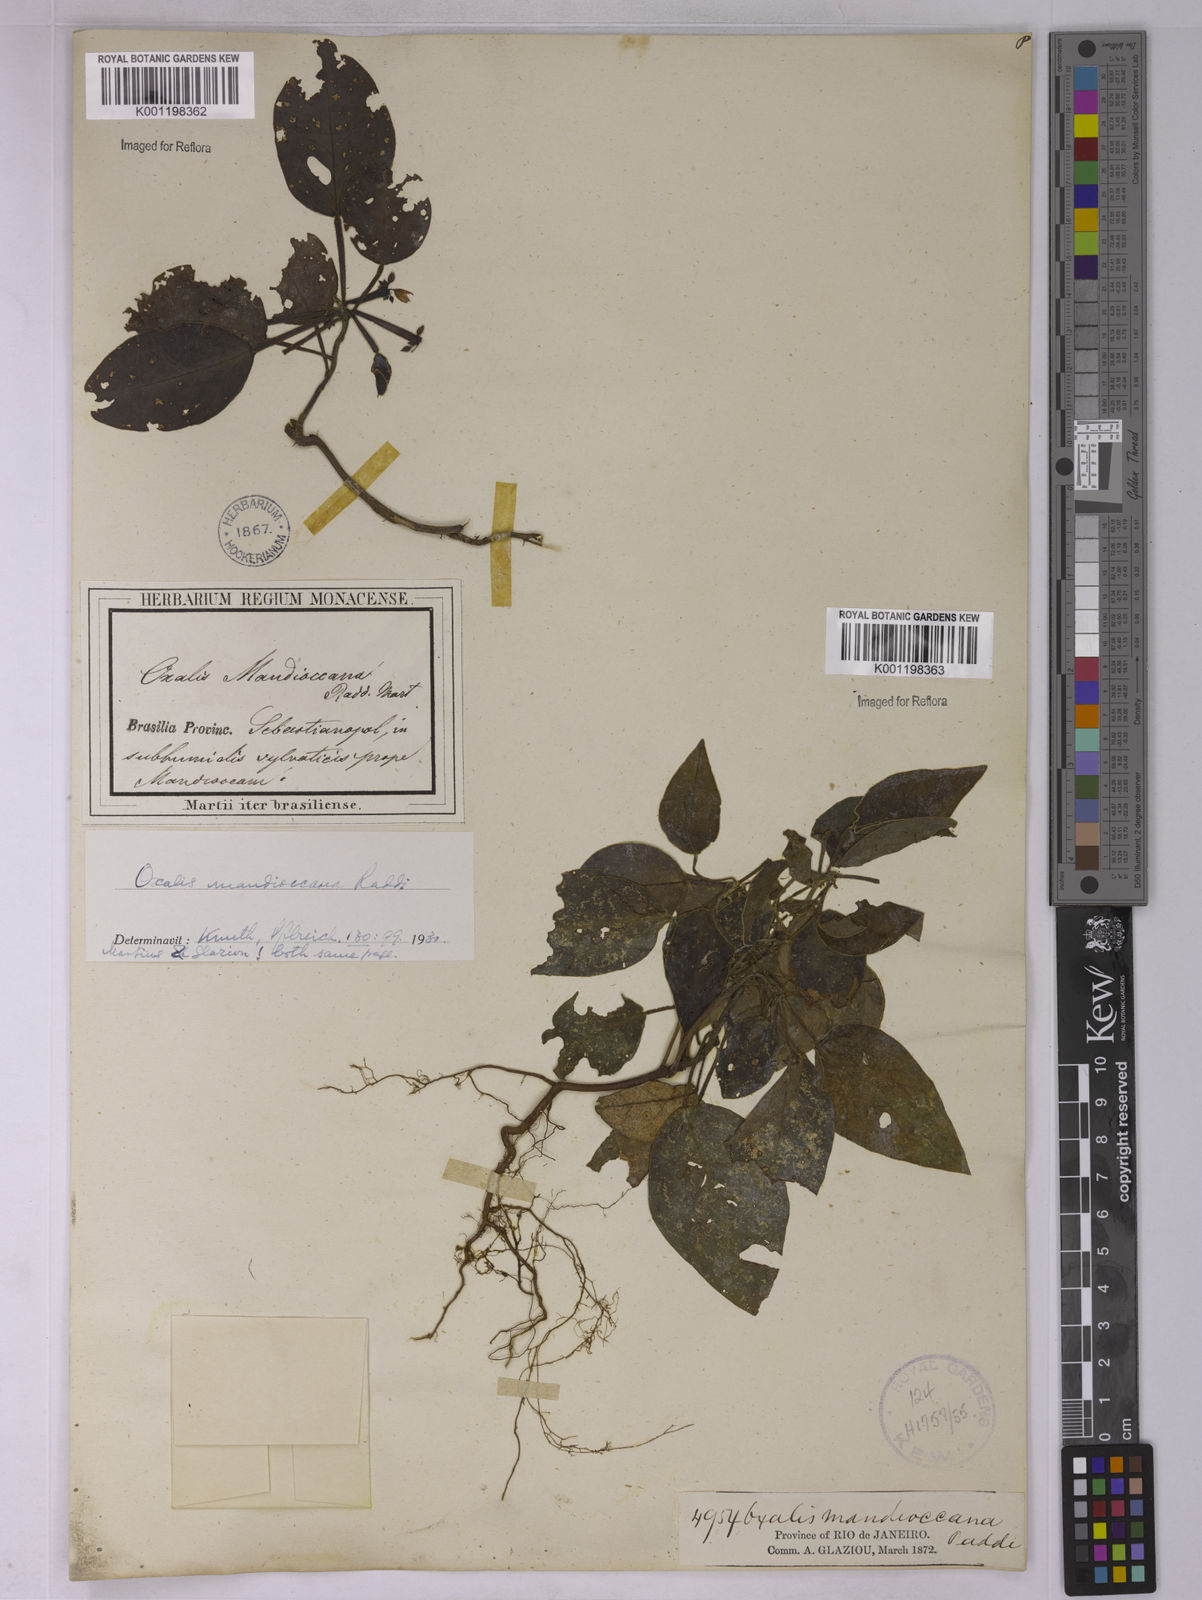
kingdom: Plantae
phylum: Tracheophyta
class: Magnoliopsida
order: Oxalidales
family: Oxalidaceae
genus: Oxalis
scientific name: Oxalis mandioccana
